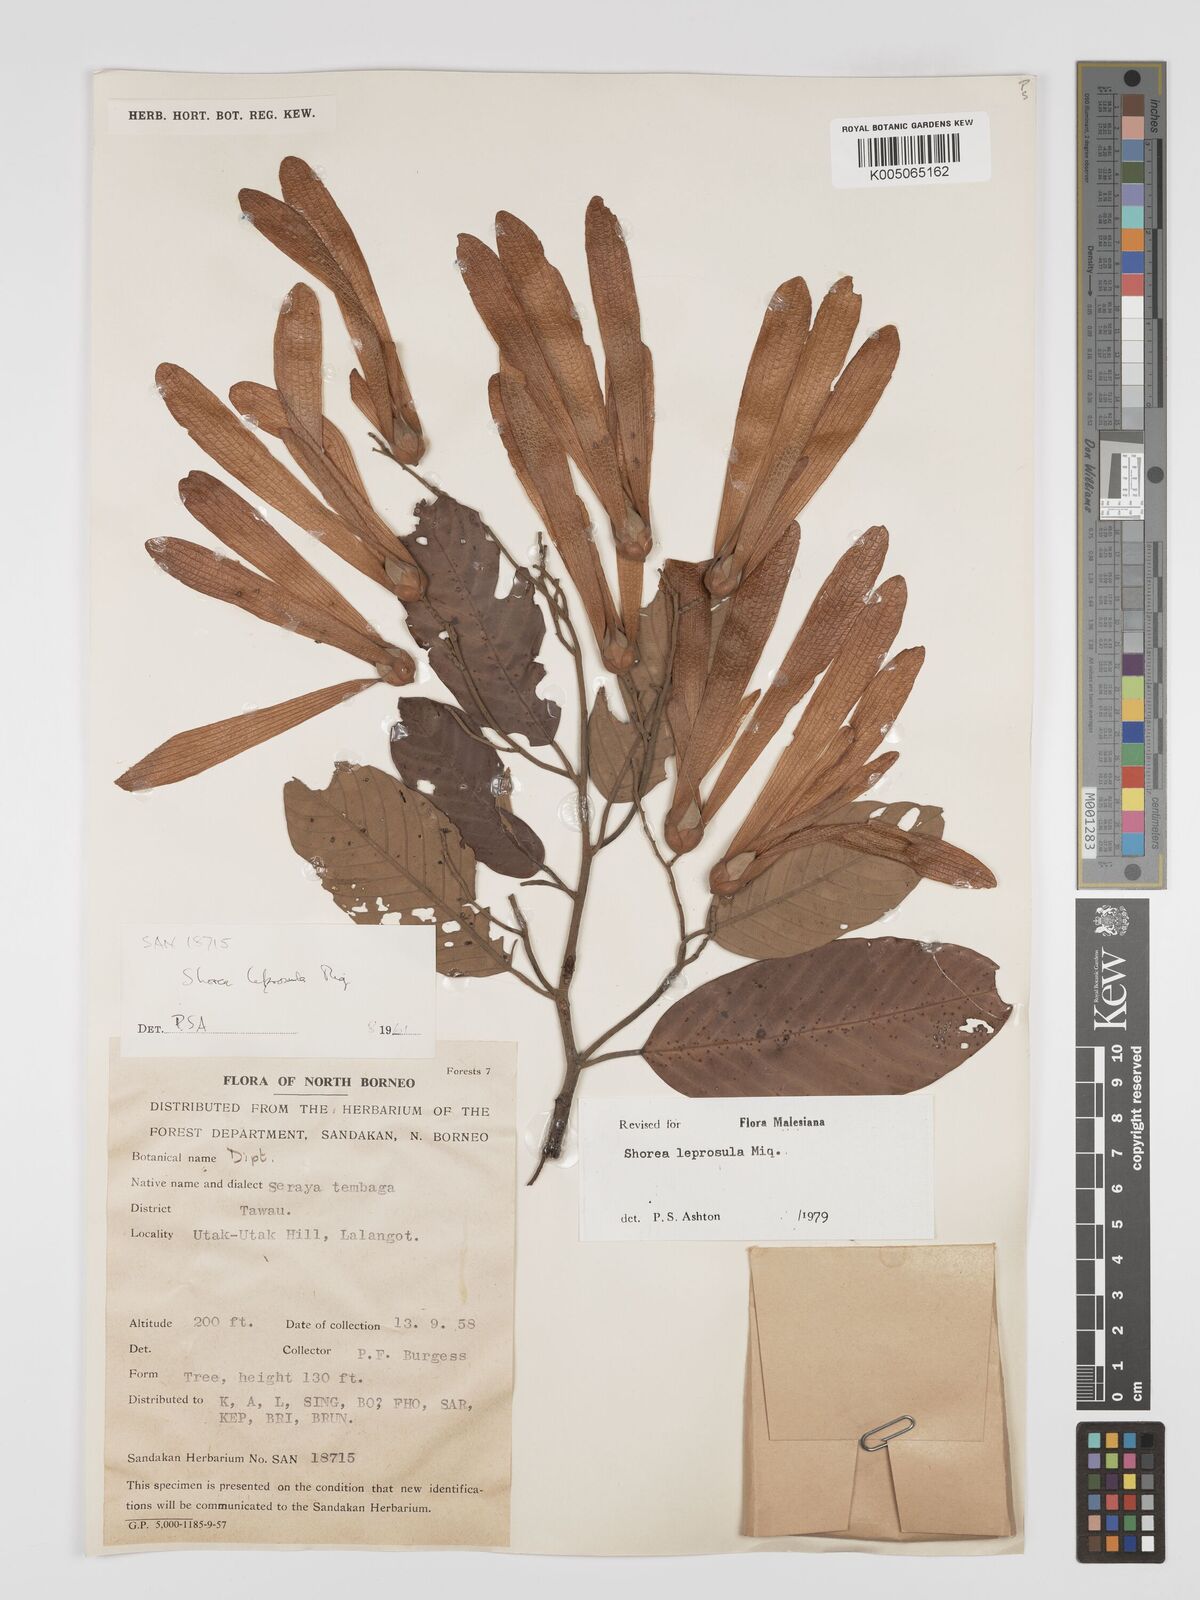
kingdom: Plantae
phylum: Tracheophyta
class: Magnoliopsida
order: Malvales
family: Dipterocarpaceae
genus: Shorea
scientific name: Shorea leprosula
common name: Light red meranti
